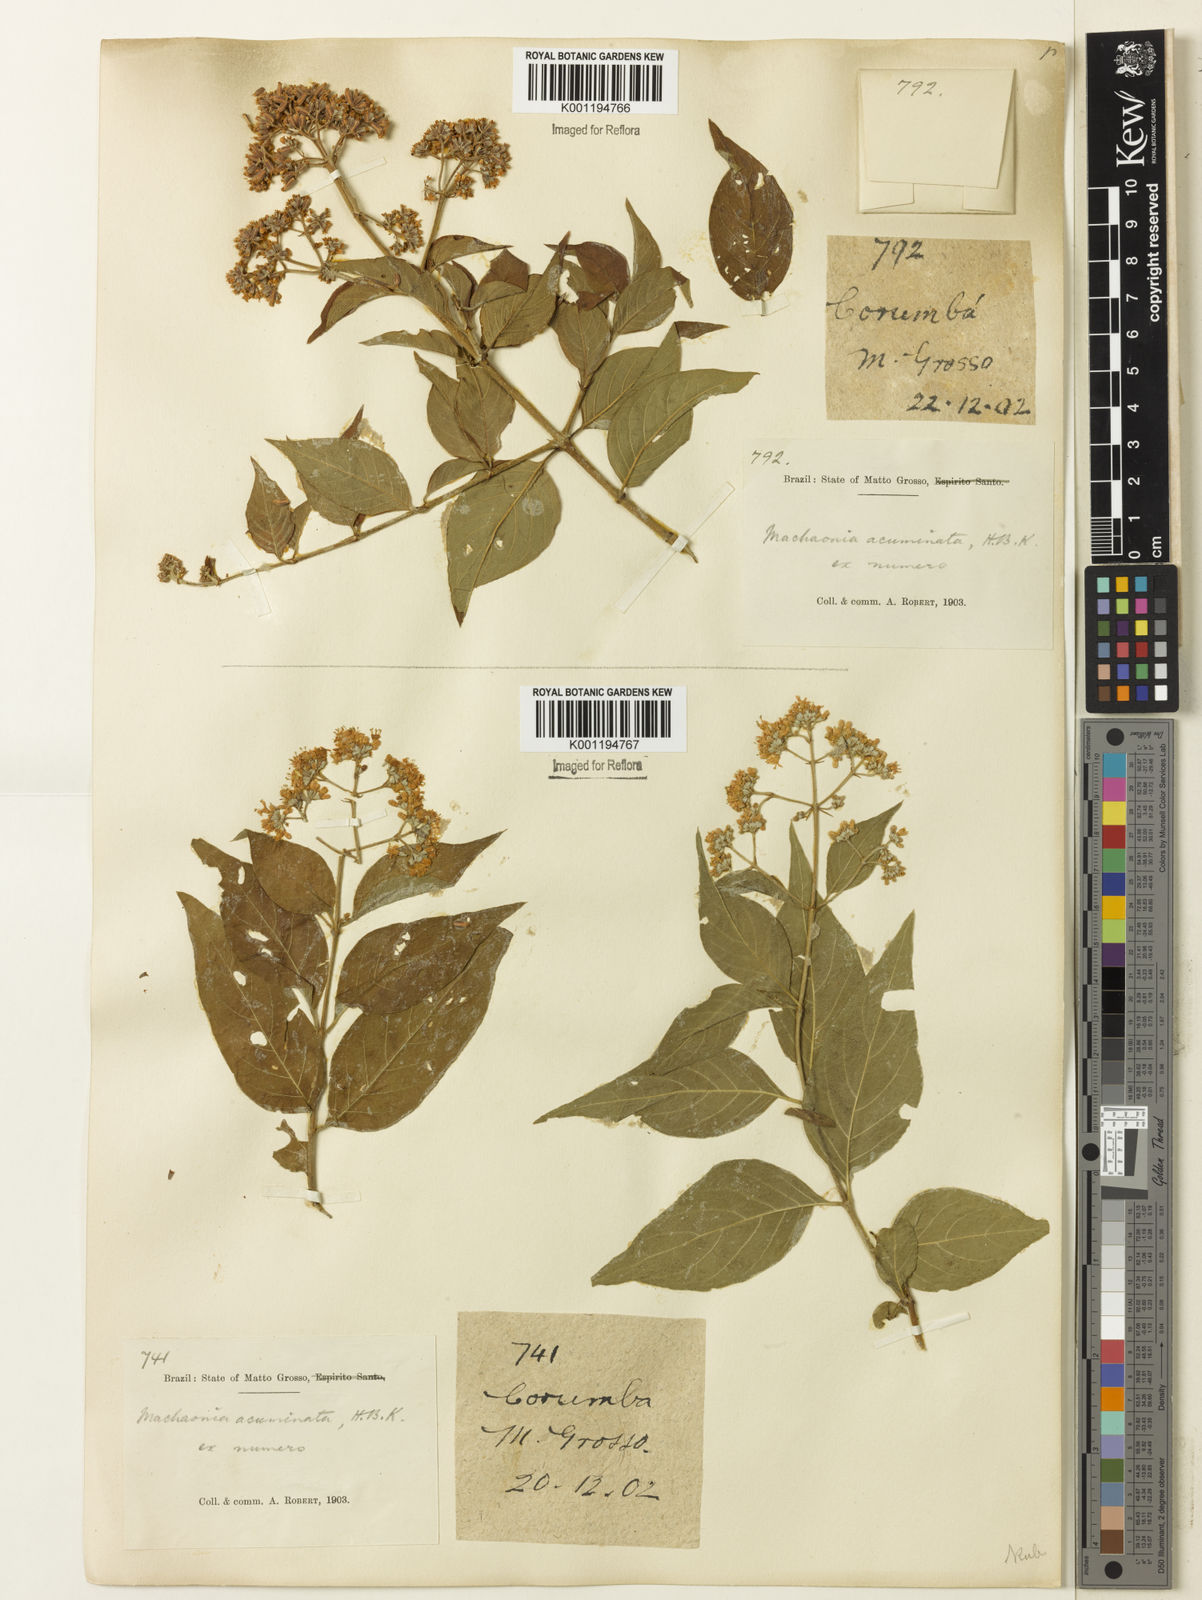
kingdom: Plantae
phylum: Tracheophyta
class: Magnoliopsida
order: Gentianales
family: Rubiaceae
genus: Machaonia
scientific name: Machaonia acuminata
